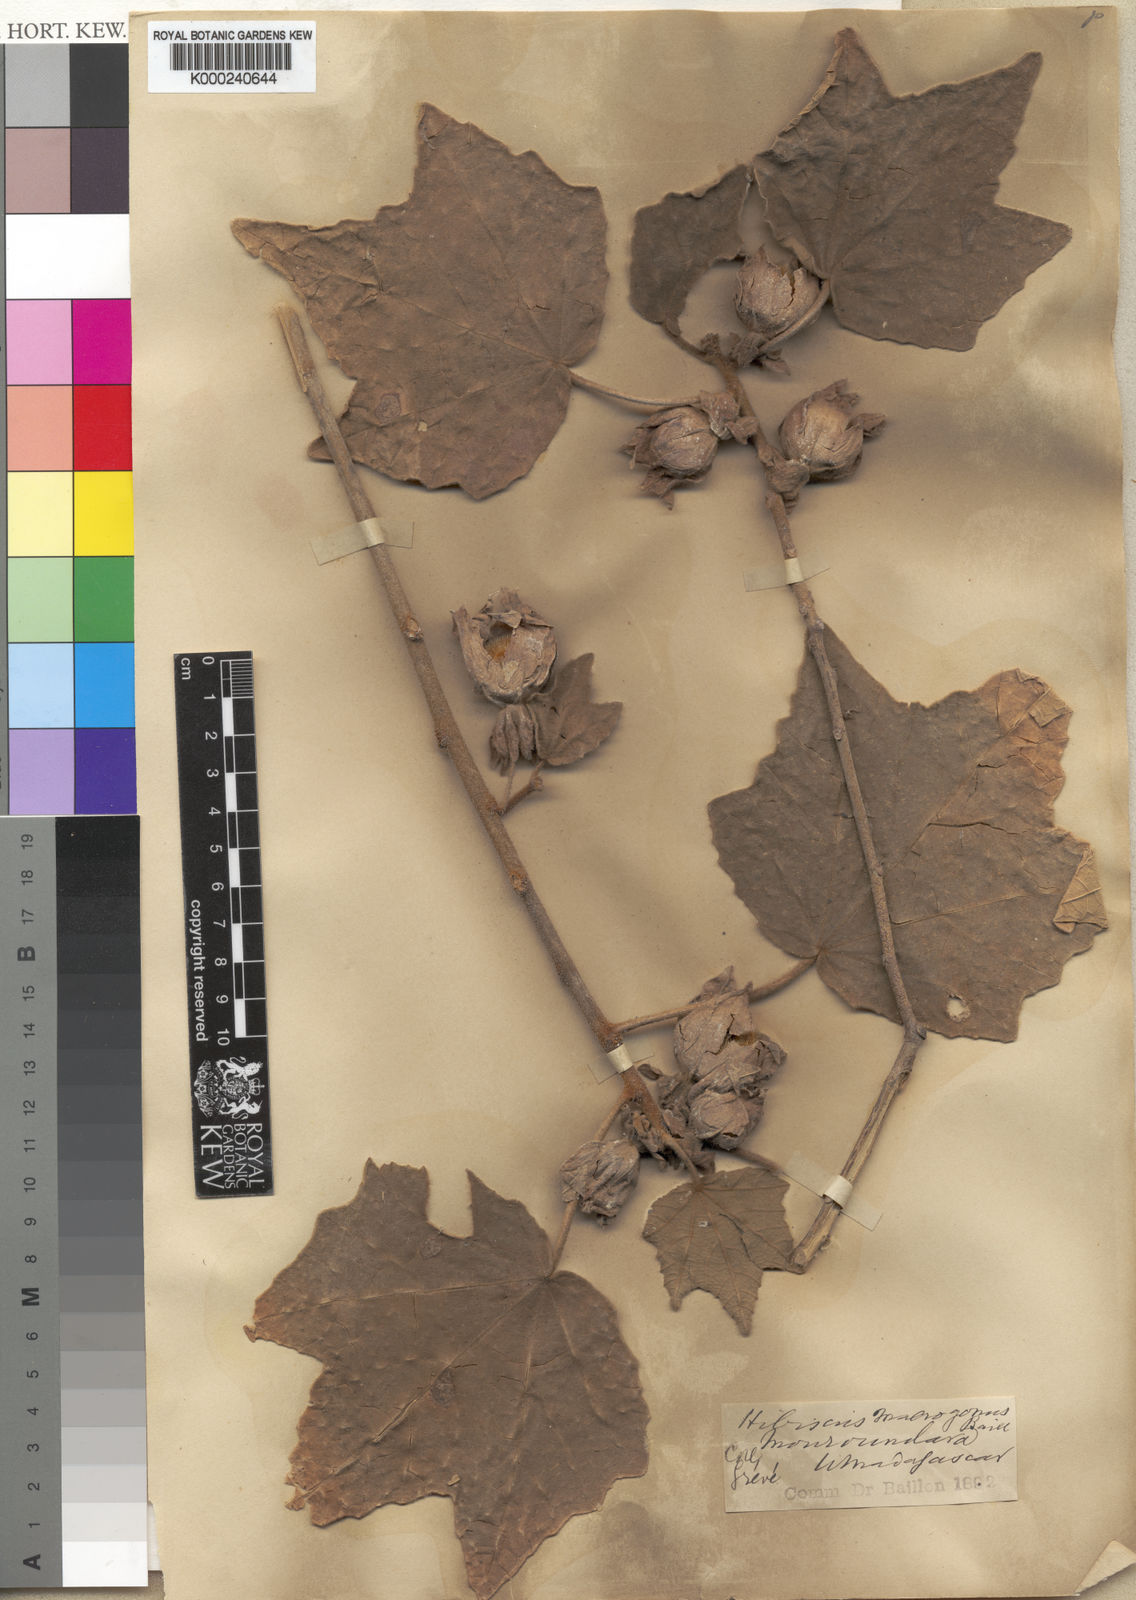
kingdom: Plantae
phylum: Tracheophyta
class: Magnoliopsida
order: Malvales
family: Malvaceae
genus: Hibiscus
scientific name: Hibiscus macrogonus
